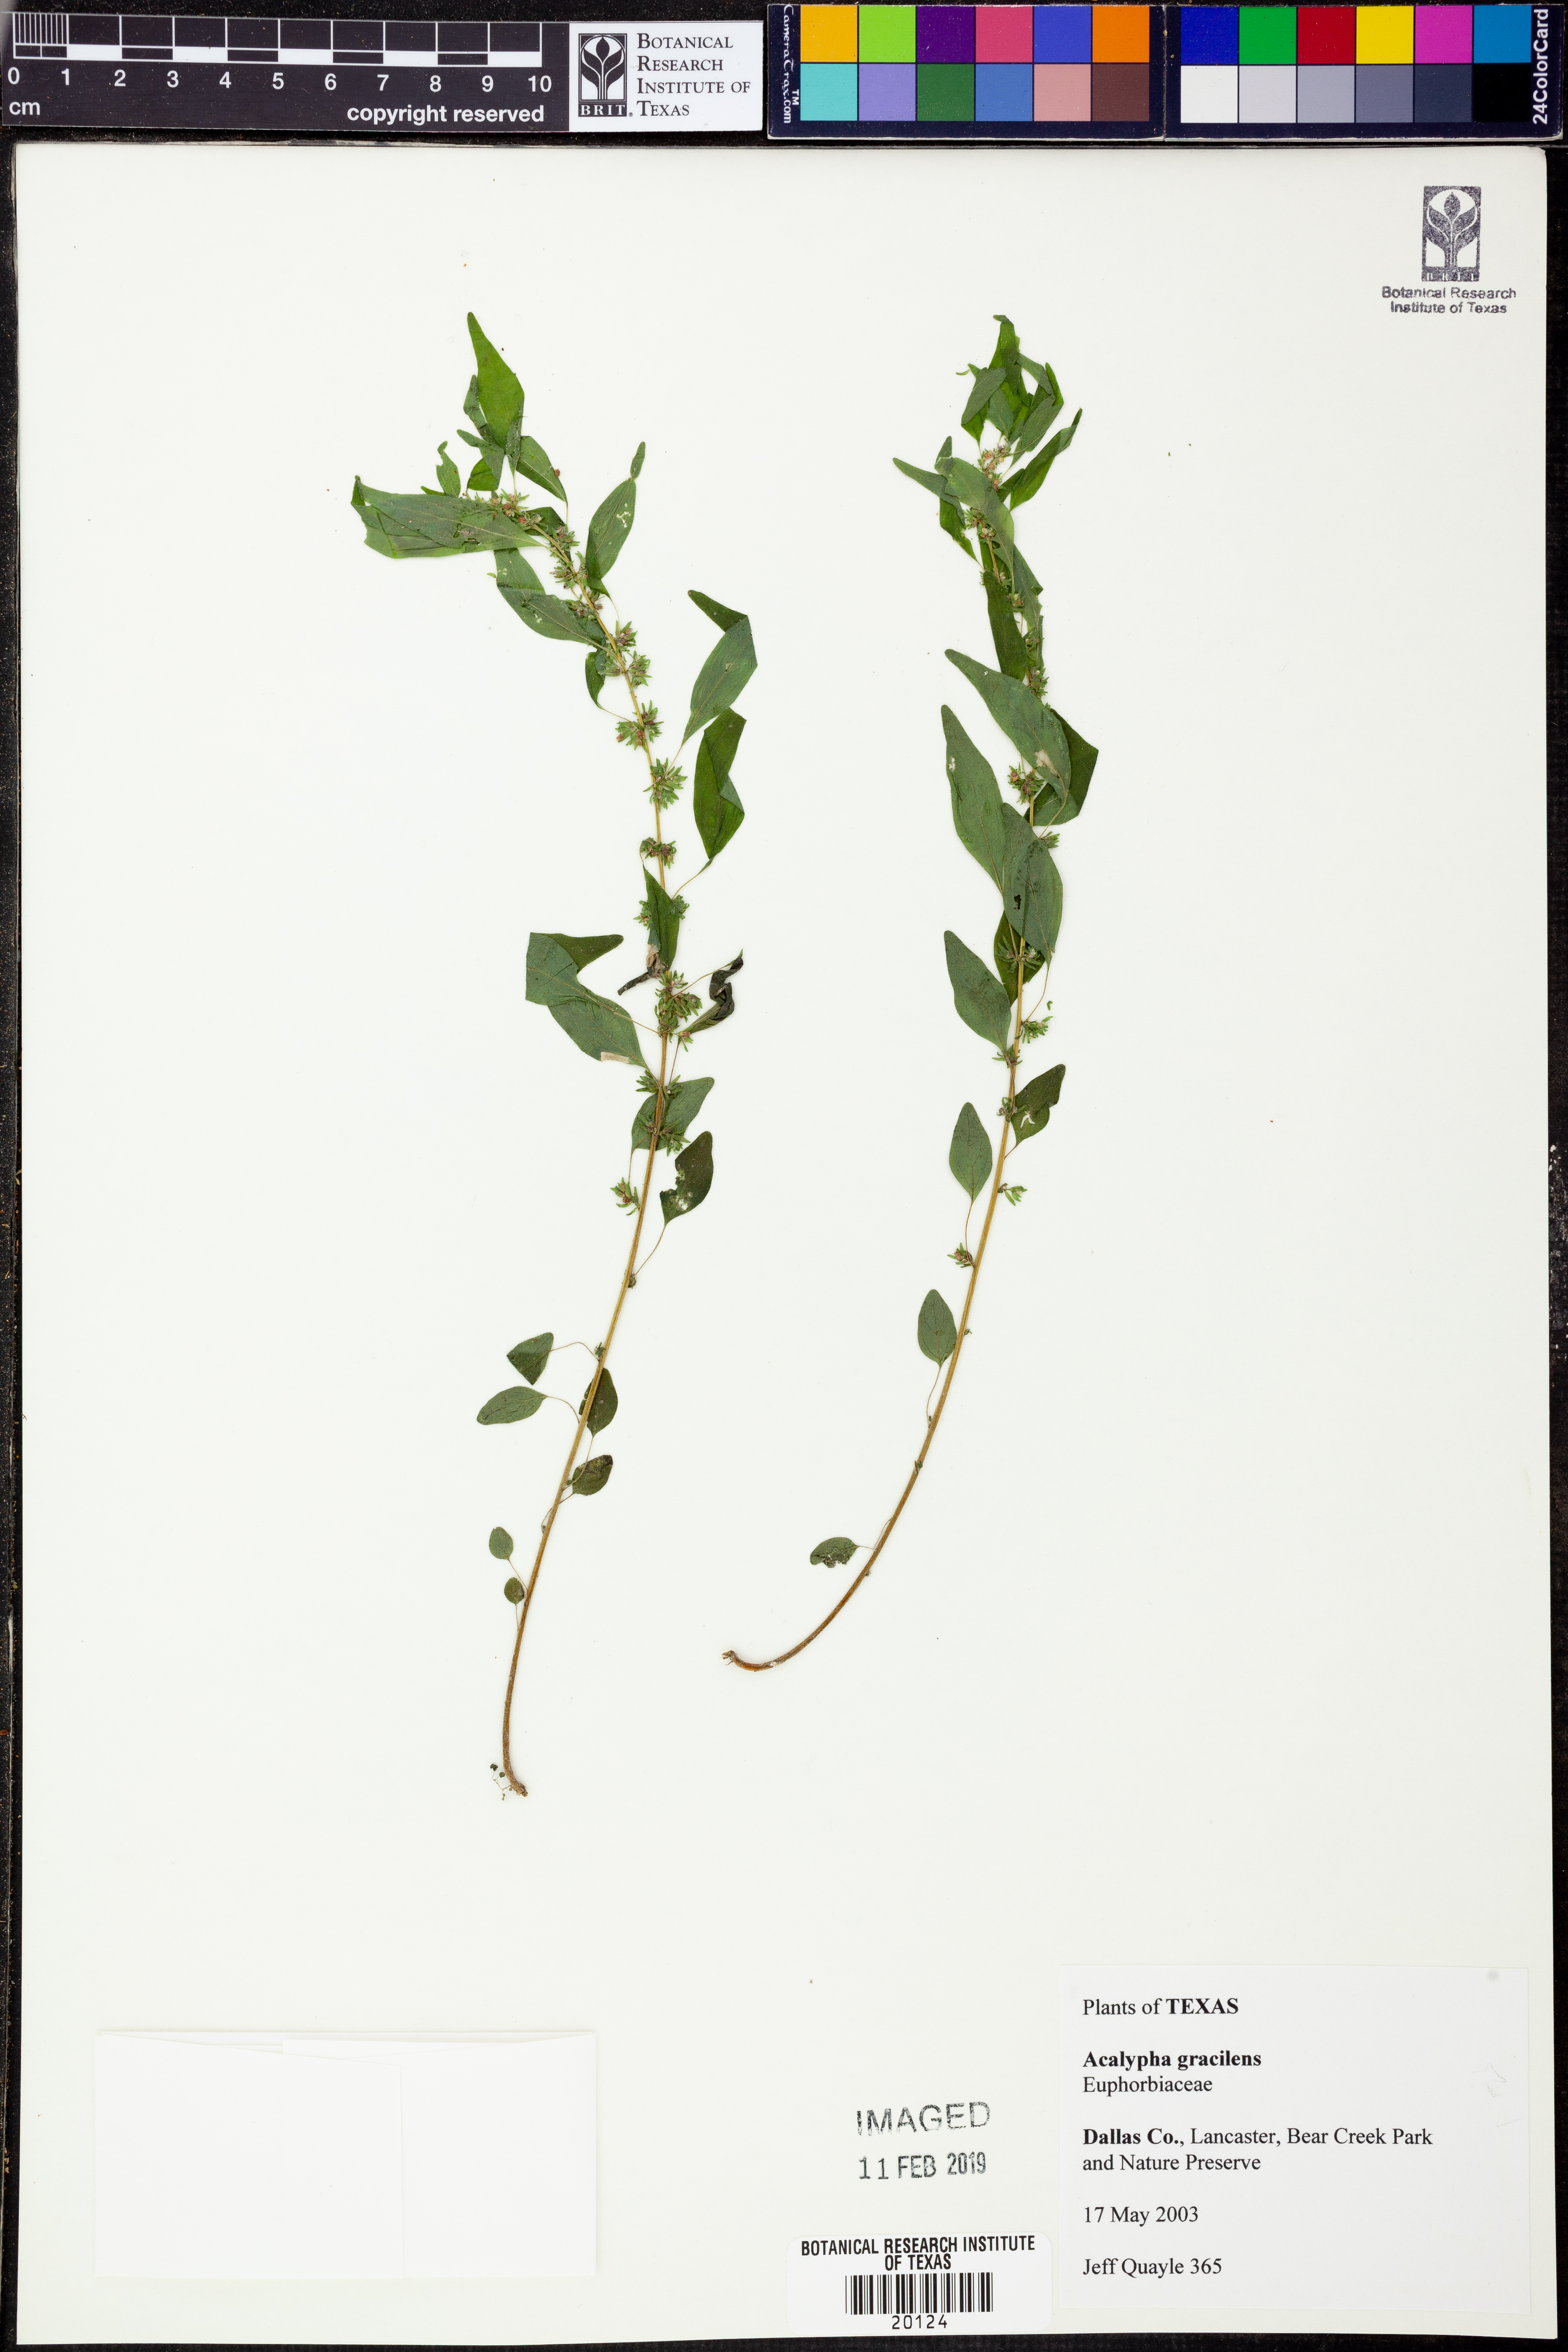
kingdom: Plantae
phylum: Tracheophyta
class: Magnoliopsida
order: Malpighiales
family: Euphorbiaceae
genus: Acalypha
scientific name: Acalypha gracilens
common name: Slender three-seeded mercury
